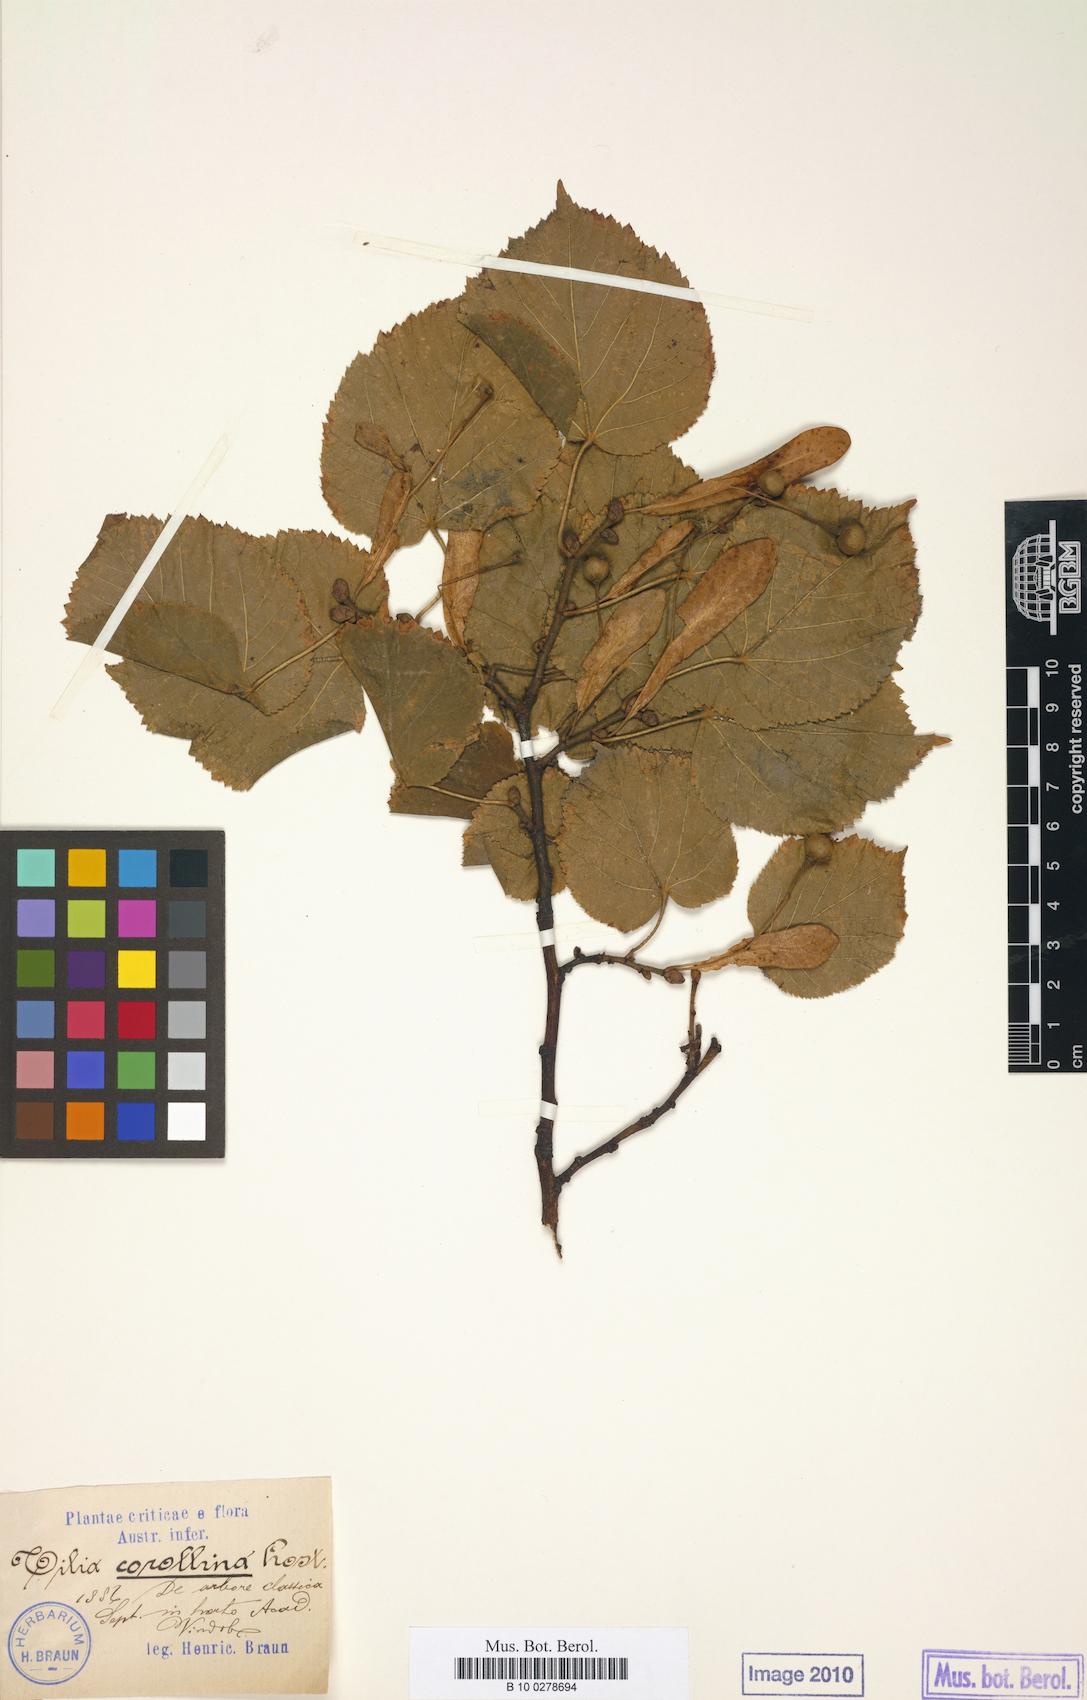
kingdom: Plantae
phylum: Tracheophyta
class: Magnoliopsida
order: Malvales
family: Malvaceae
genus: Tilia
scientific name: Tilia platyphyllos
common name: Large-leaved lime
